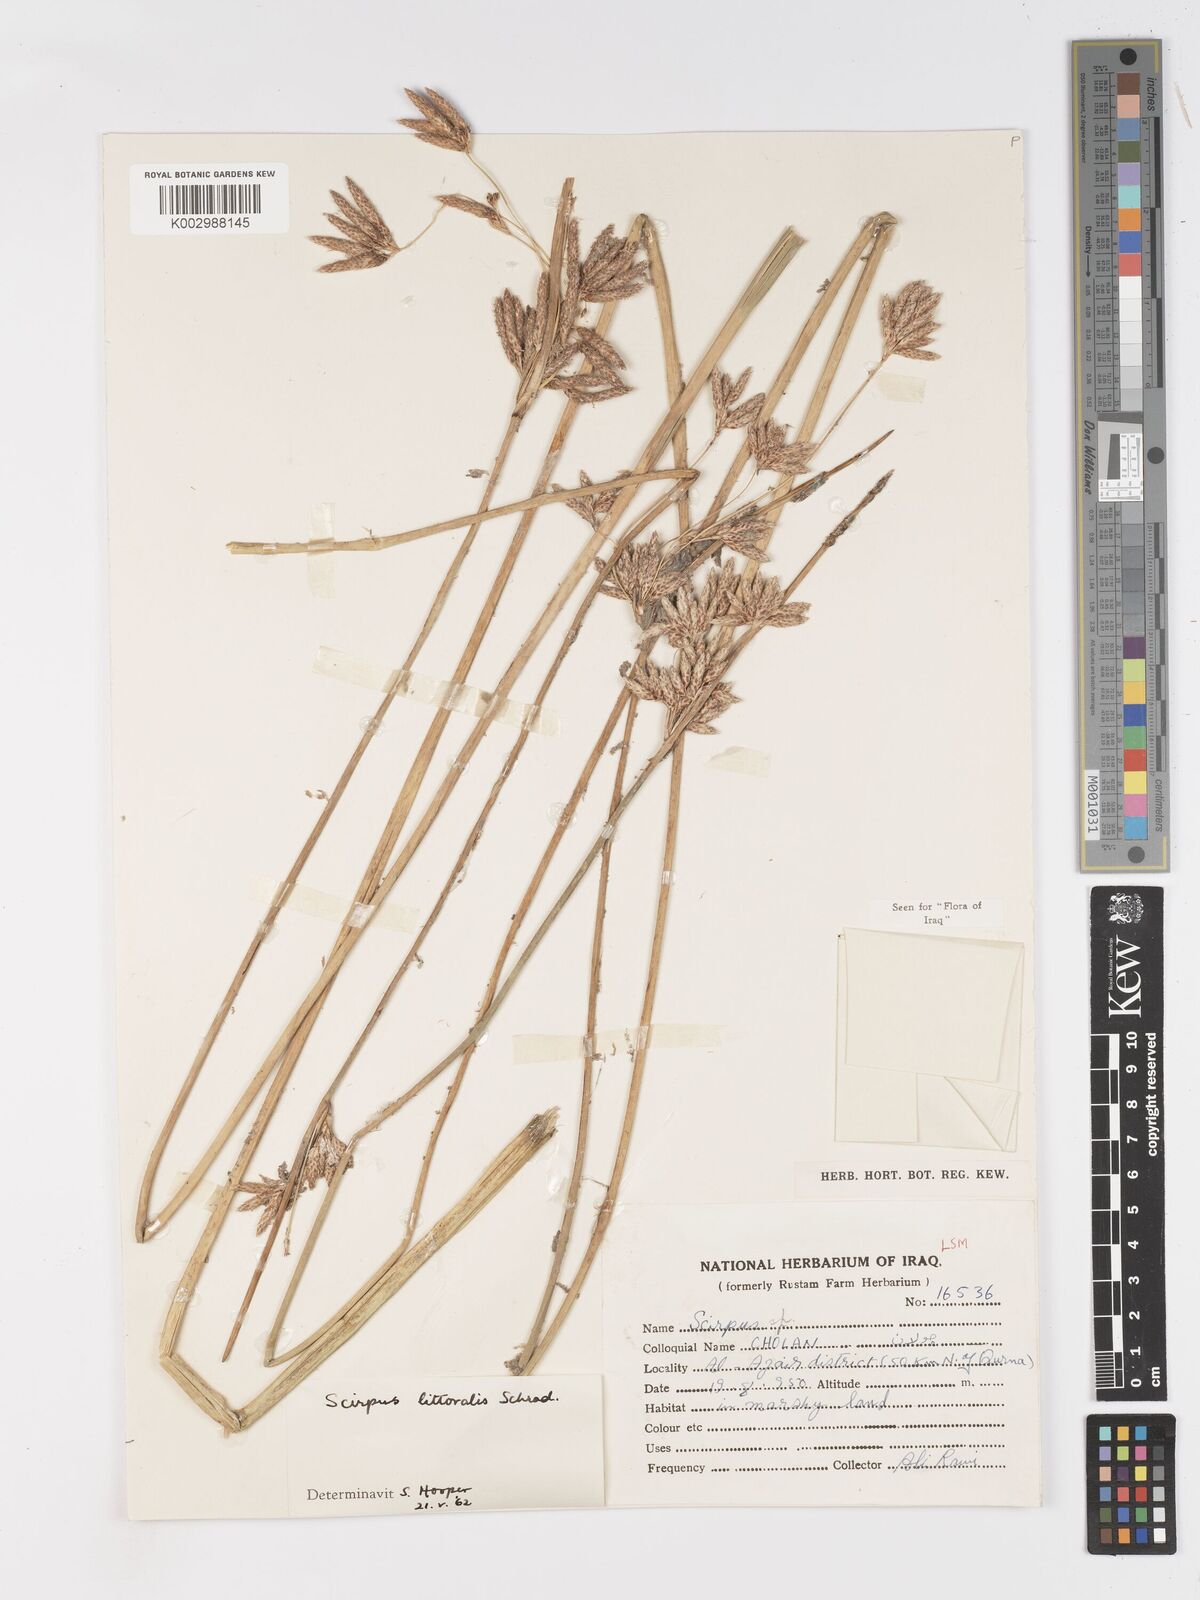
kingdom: Plantae
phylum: Tracheophyta
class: Liliopsida
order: Poales
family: Cyperaceae
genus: Schoenoplectus
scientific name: Schoenoplectus litoralis
